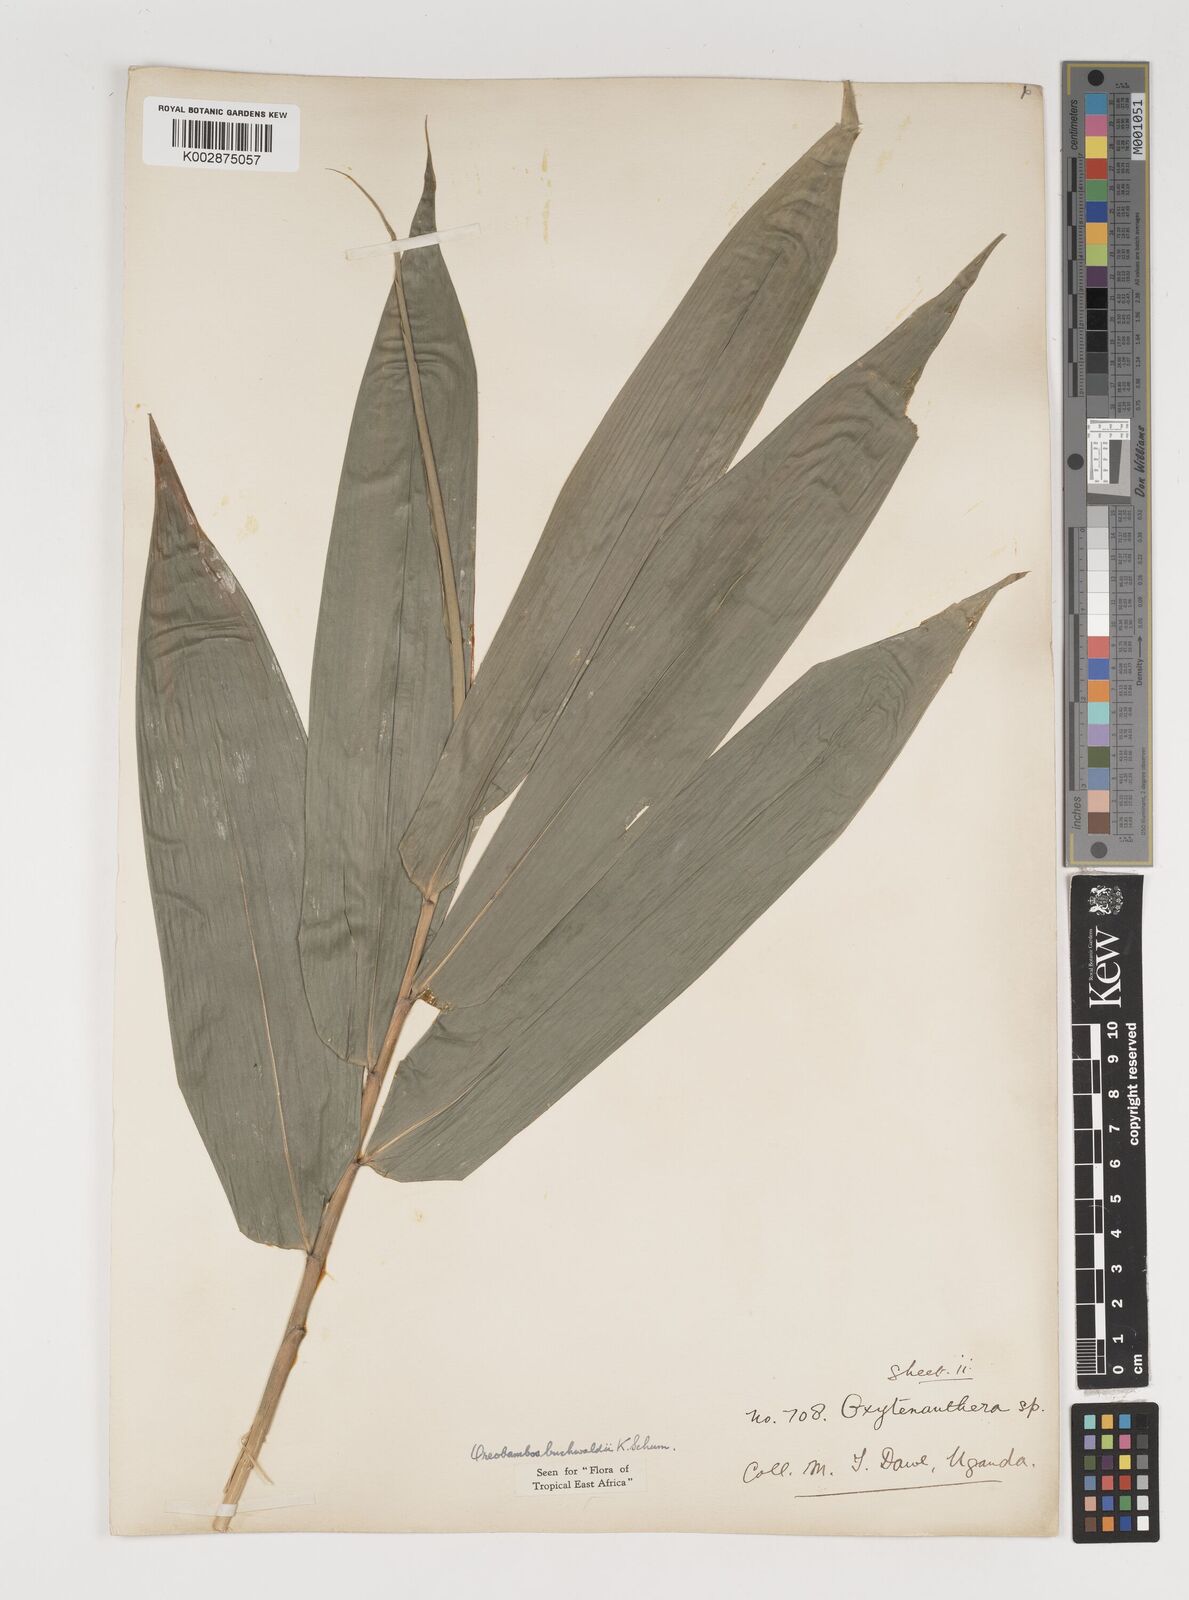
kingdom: Plantae
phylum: Tracheophyta
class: Liliopsida
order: Poales
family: Poaceae
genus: Oreobambos
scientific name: Oreobambos
